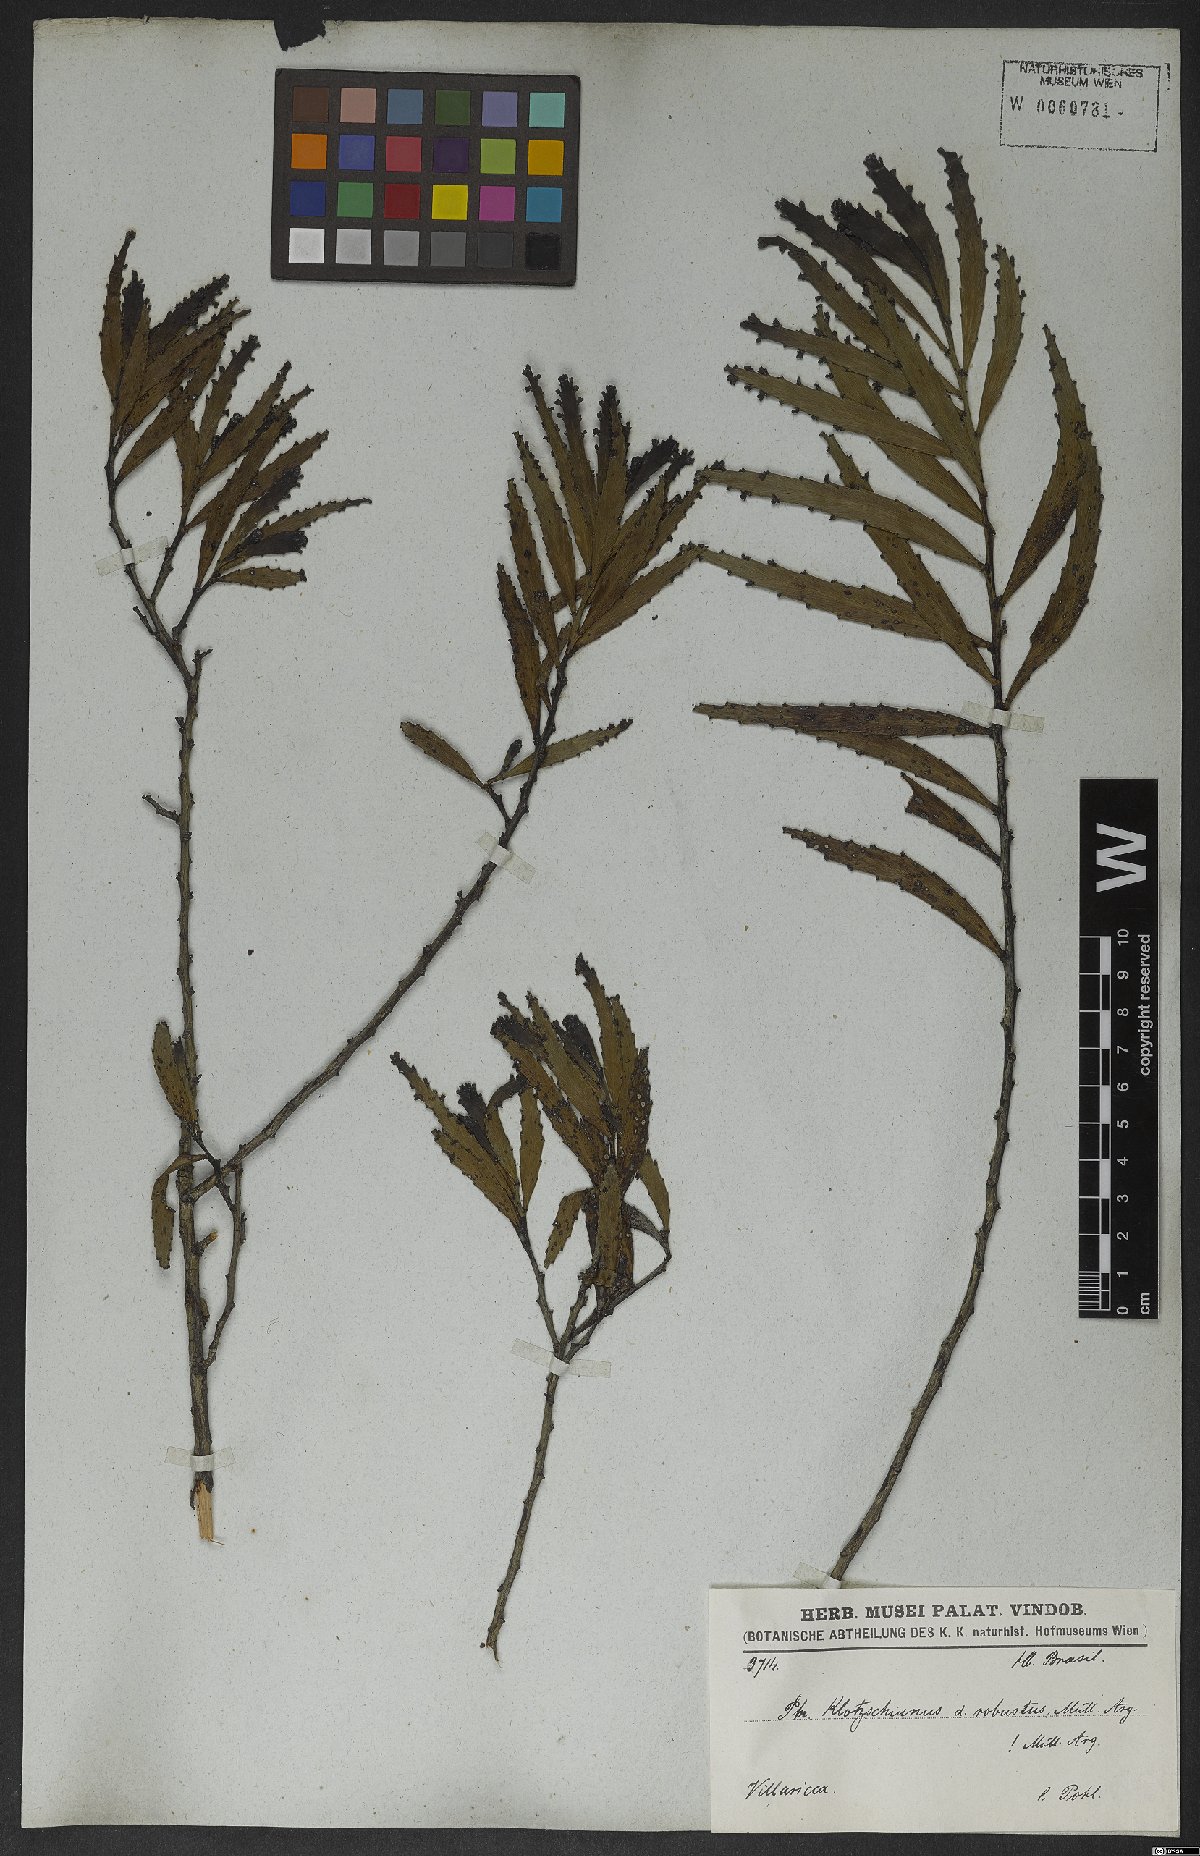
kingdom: Plantae
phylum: Tracheophyta
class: Magnoliopsida
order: Malpighiales
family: Phyllanthaceae
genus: Phyllanthus
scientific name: Phyllanthus robustus
